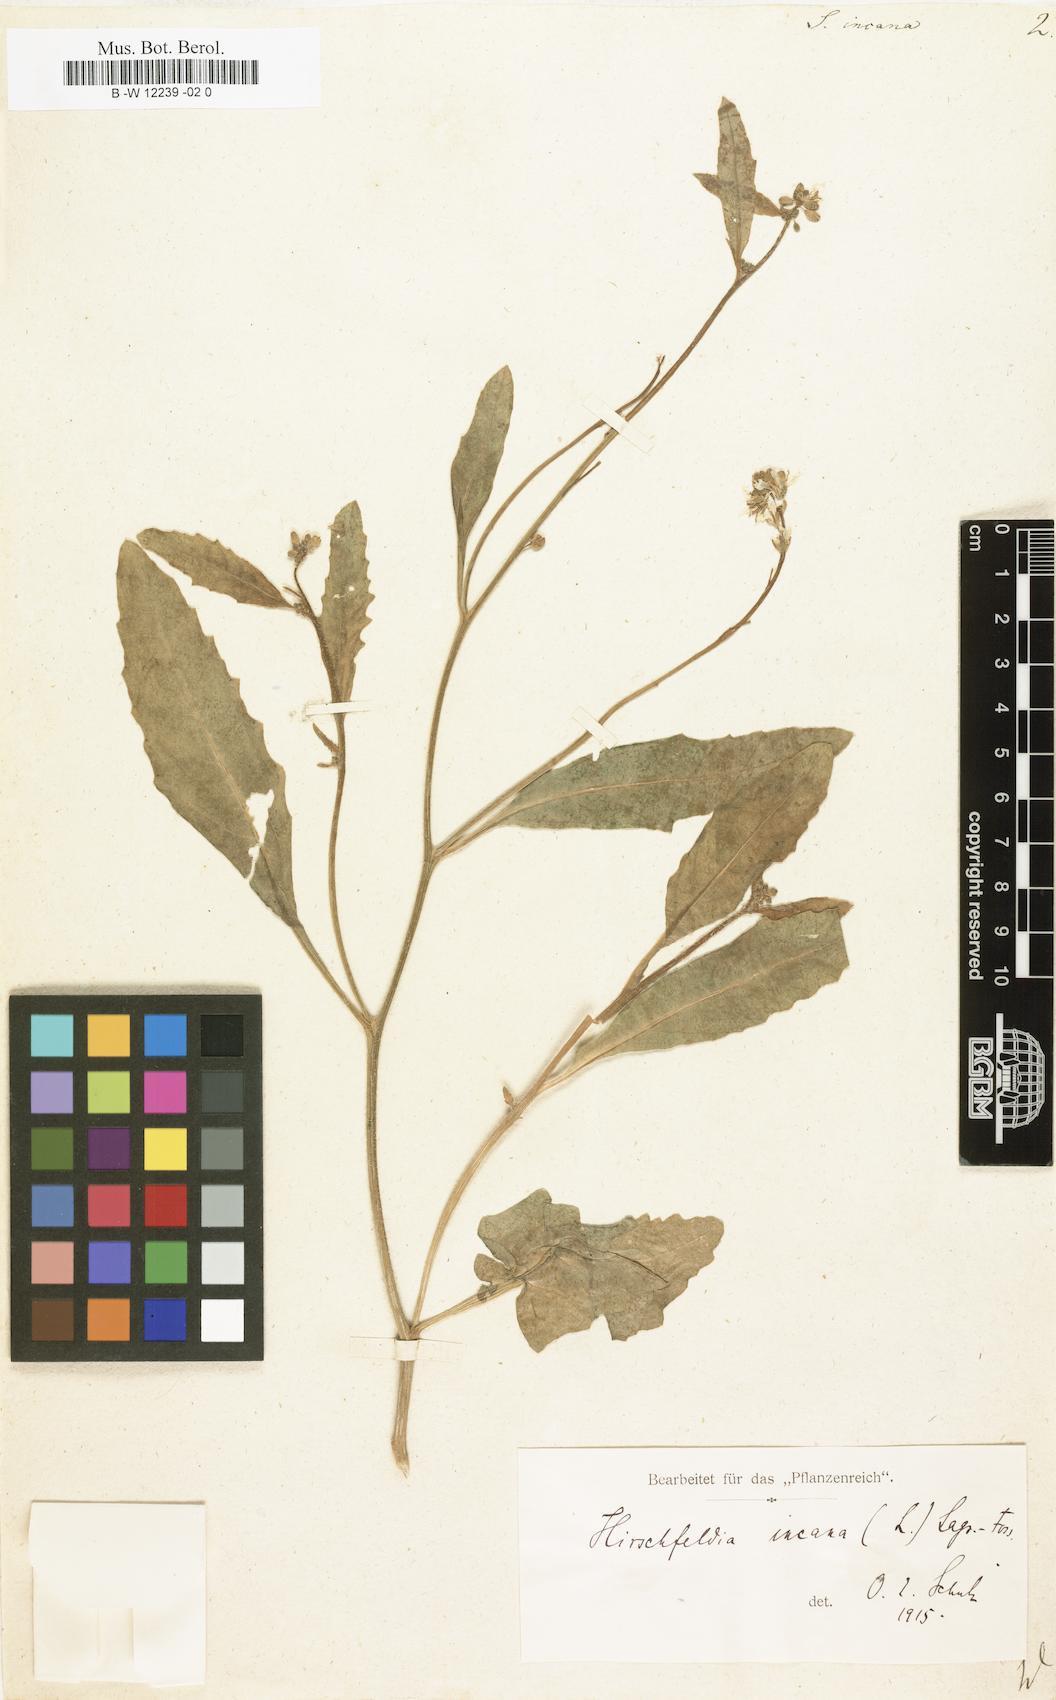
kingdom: Plantae
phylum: Tracheophyta
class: Magnoliopsida
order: Brassicales
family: Brassicaceae
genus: Hirschfeldia
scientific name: Hirschfeldia incana
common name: Hoary mustard
